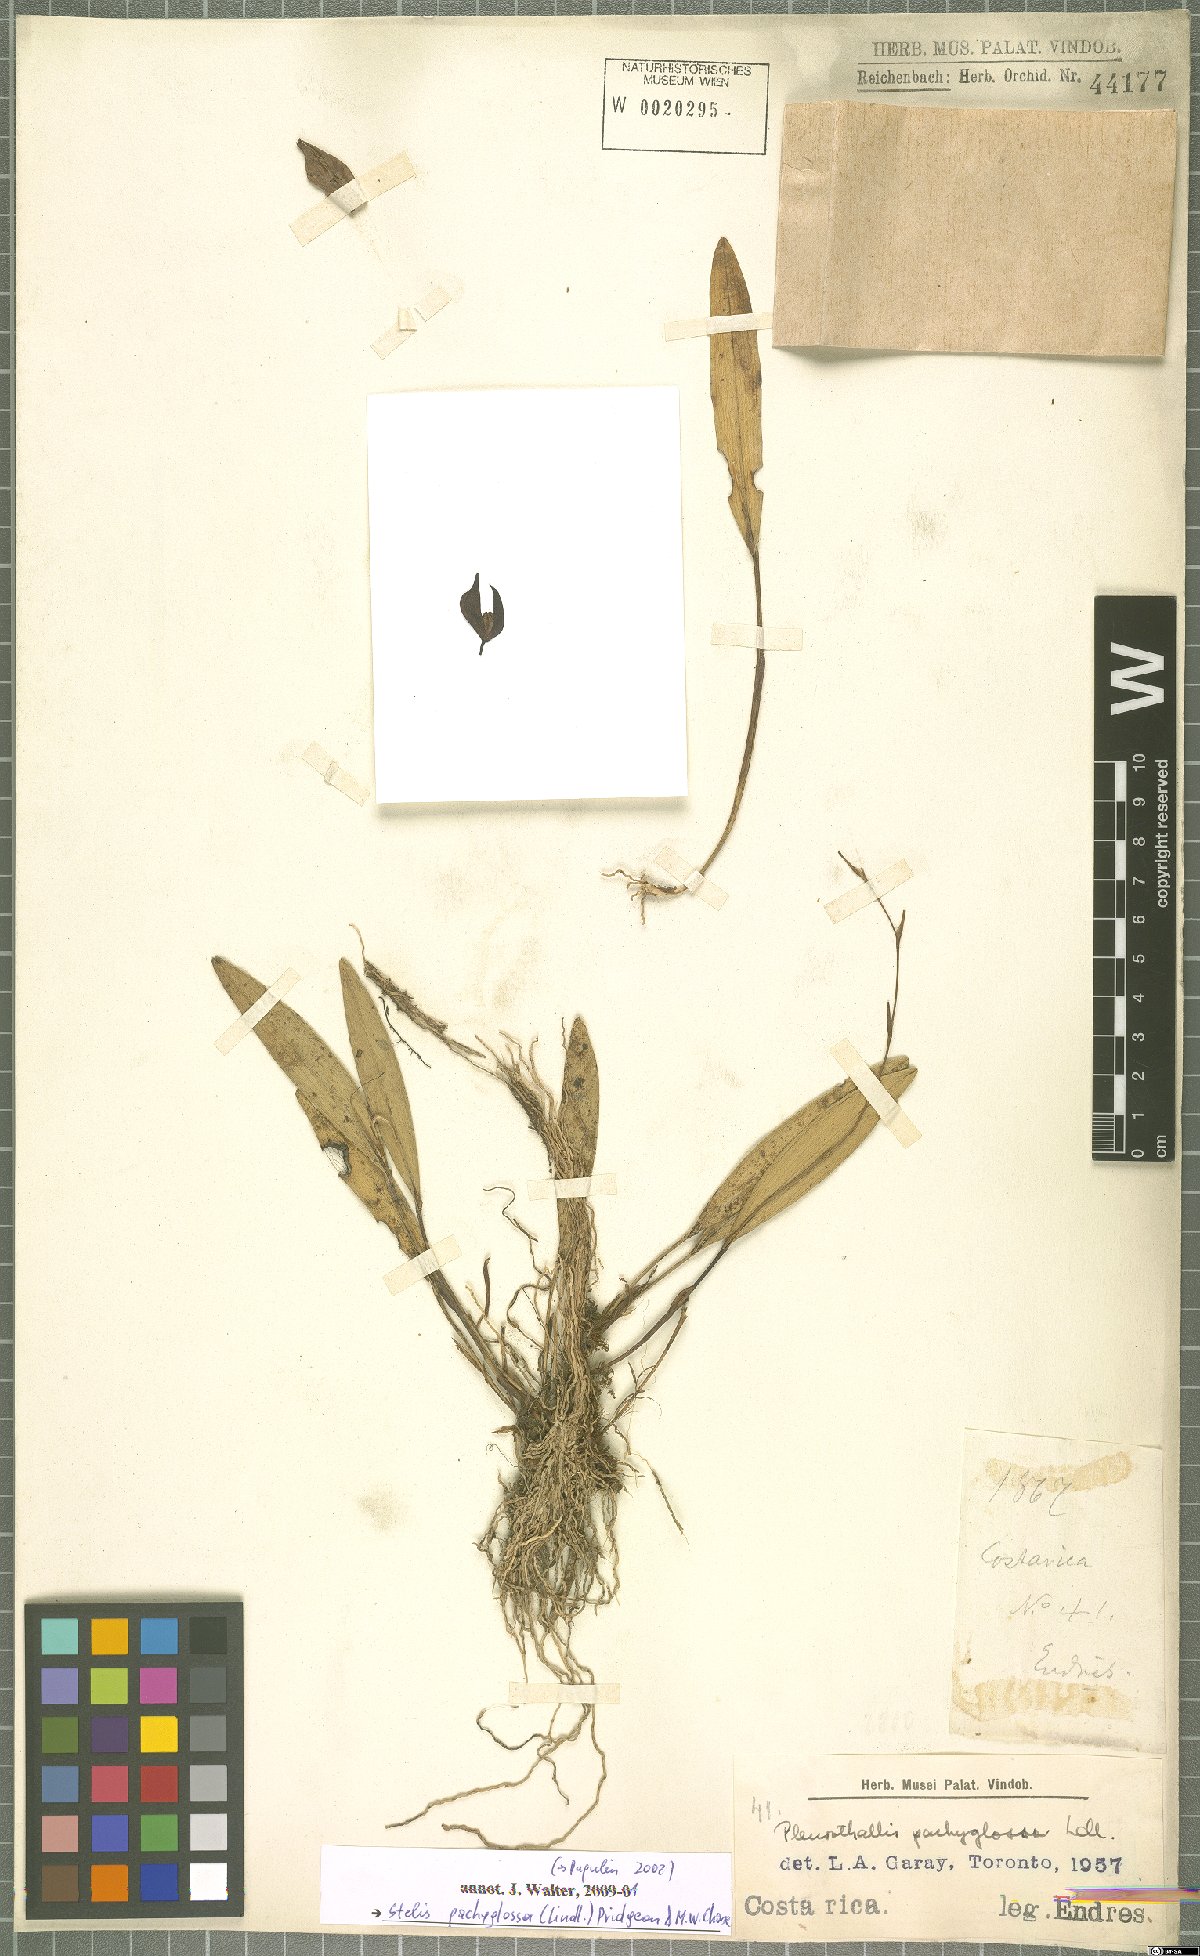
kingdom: Plantae
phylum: Tracheophyta
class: Liliopsida
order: Asparagales
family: Orchidaceae
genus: Stelis
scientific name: Stelis pachyglossa
